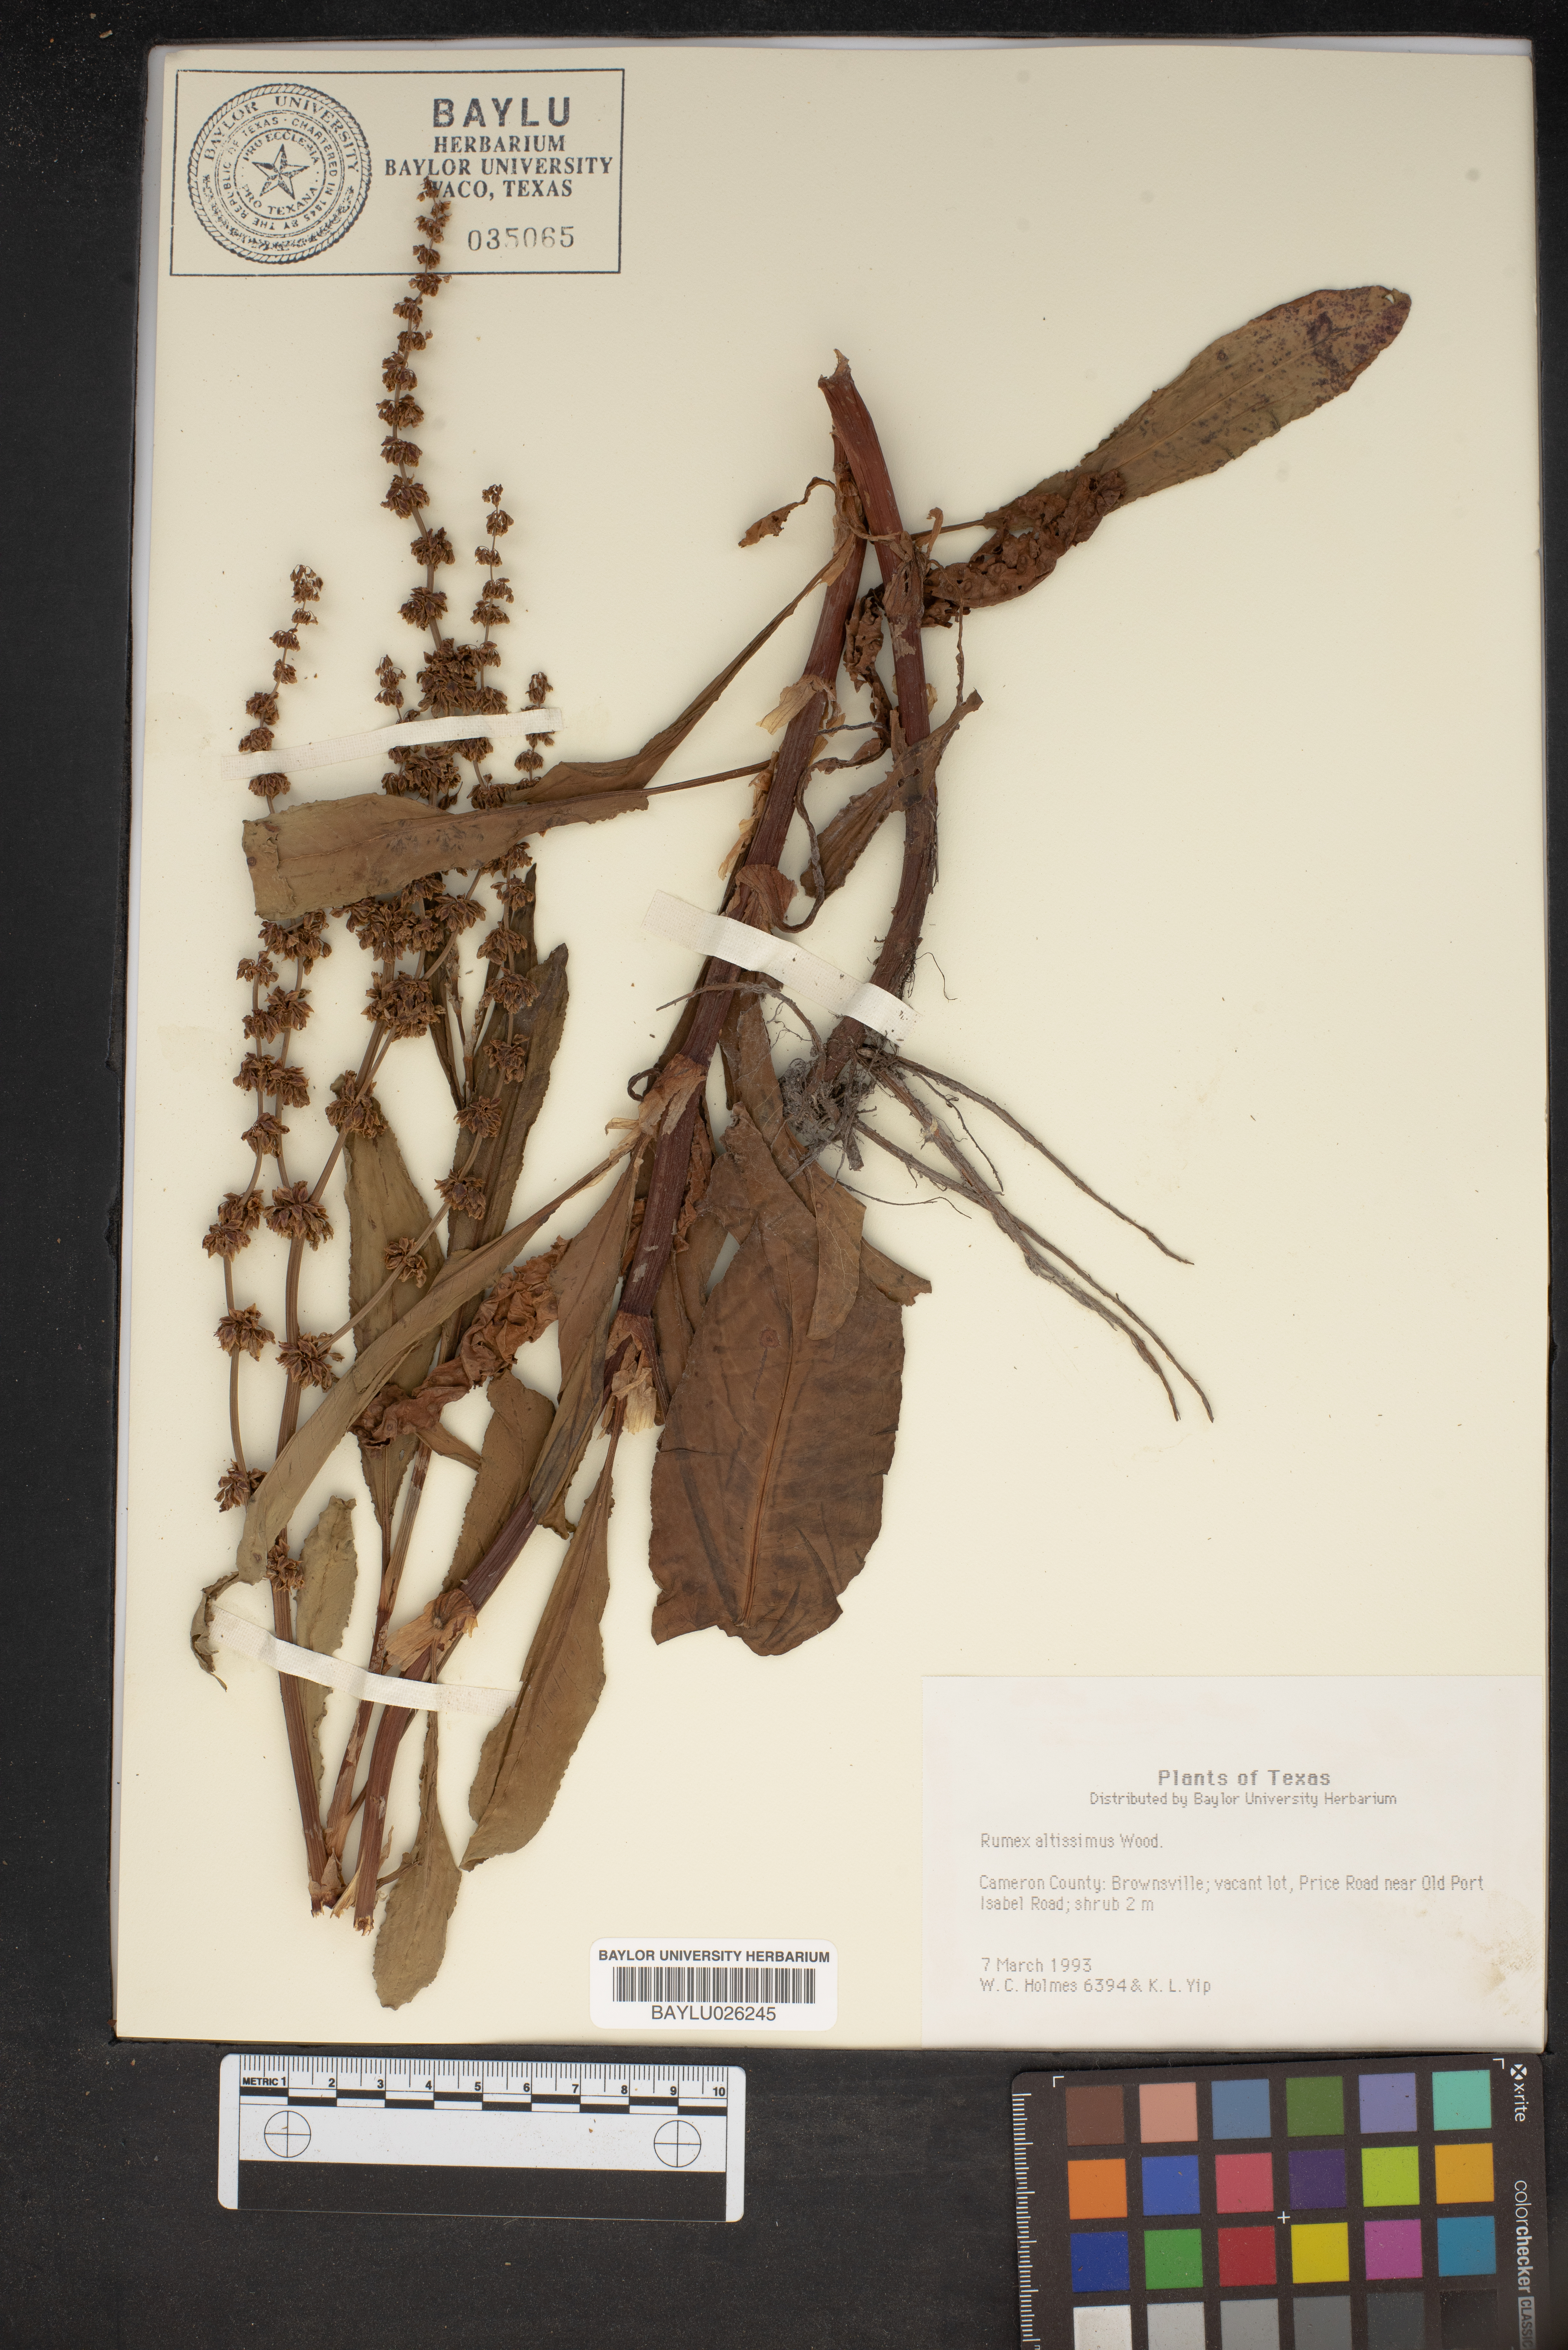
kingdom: Plantae
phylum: Tracheophyta
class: Magnoliopsida
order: Caryophyllales
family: Polygonaceae
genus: Rumex
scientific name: Rumex altissimus
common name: Smooth dock
